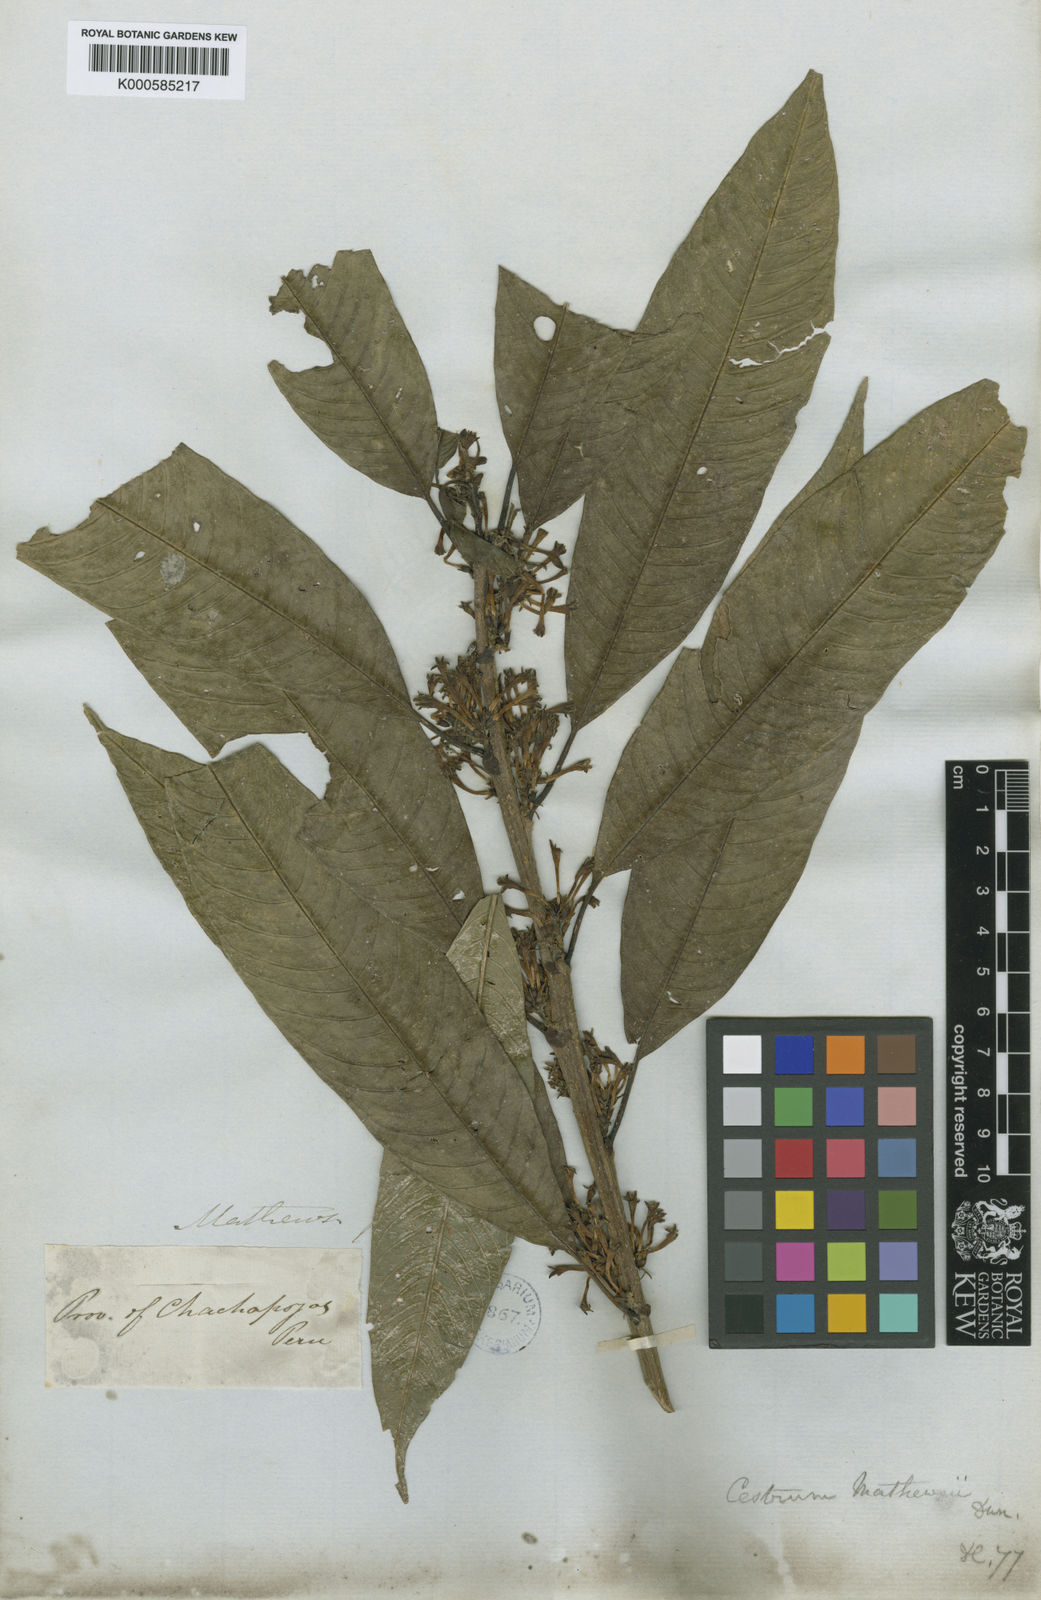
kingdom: Plantae
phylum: Tracheophyta
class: Magnoliopsida
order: Solanales
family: Solanaceae
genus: Cestrum
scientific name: Cestrum racemosum
